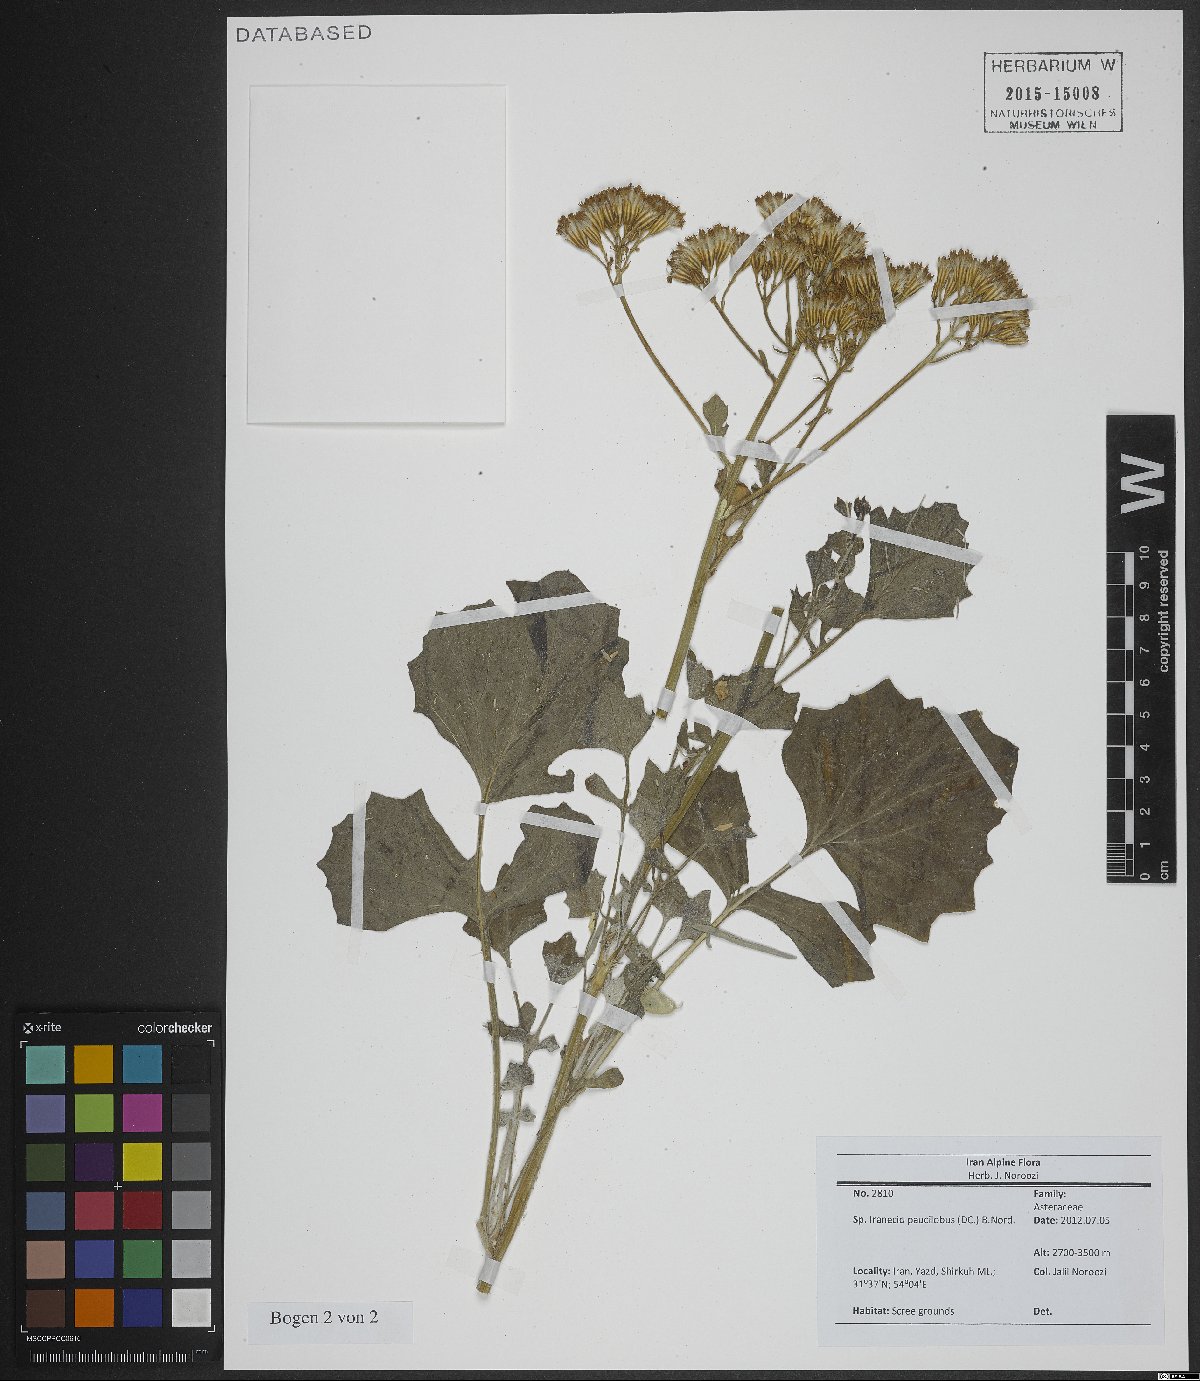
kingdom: Plantae
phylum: Tracheophyta
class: Magnoliopsida
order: Asterales
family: Asteraceae
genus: Iranecio
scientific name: Iranecio paucilobus
